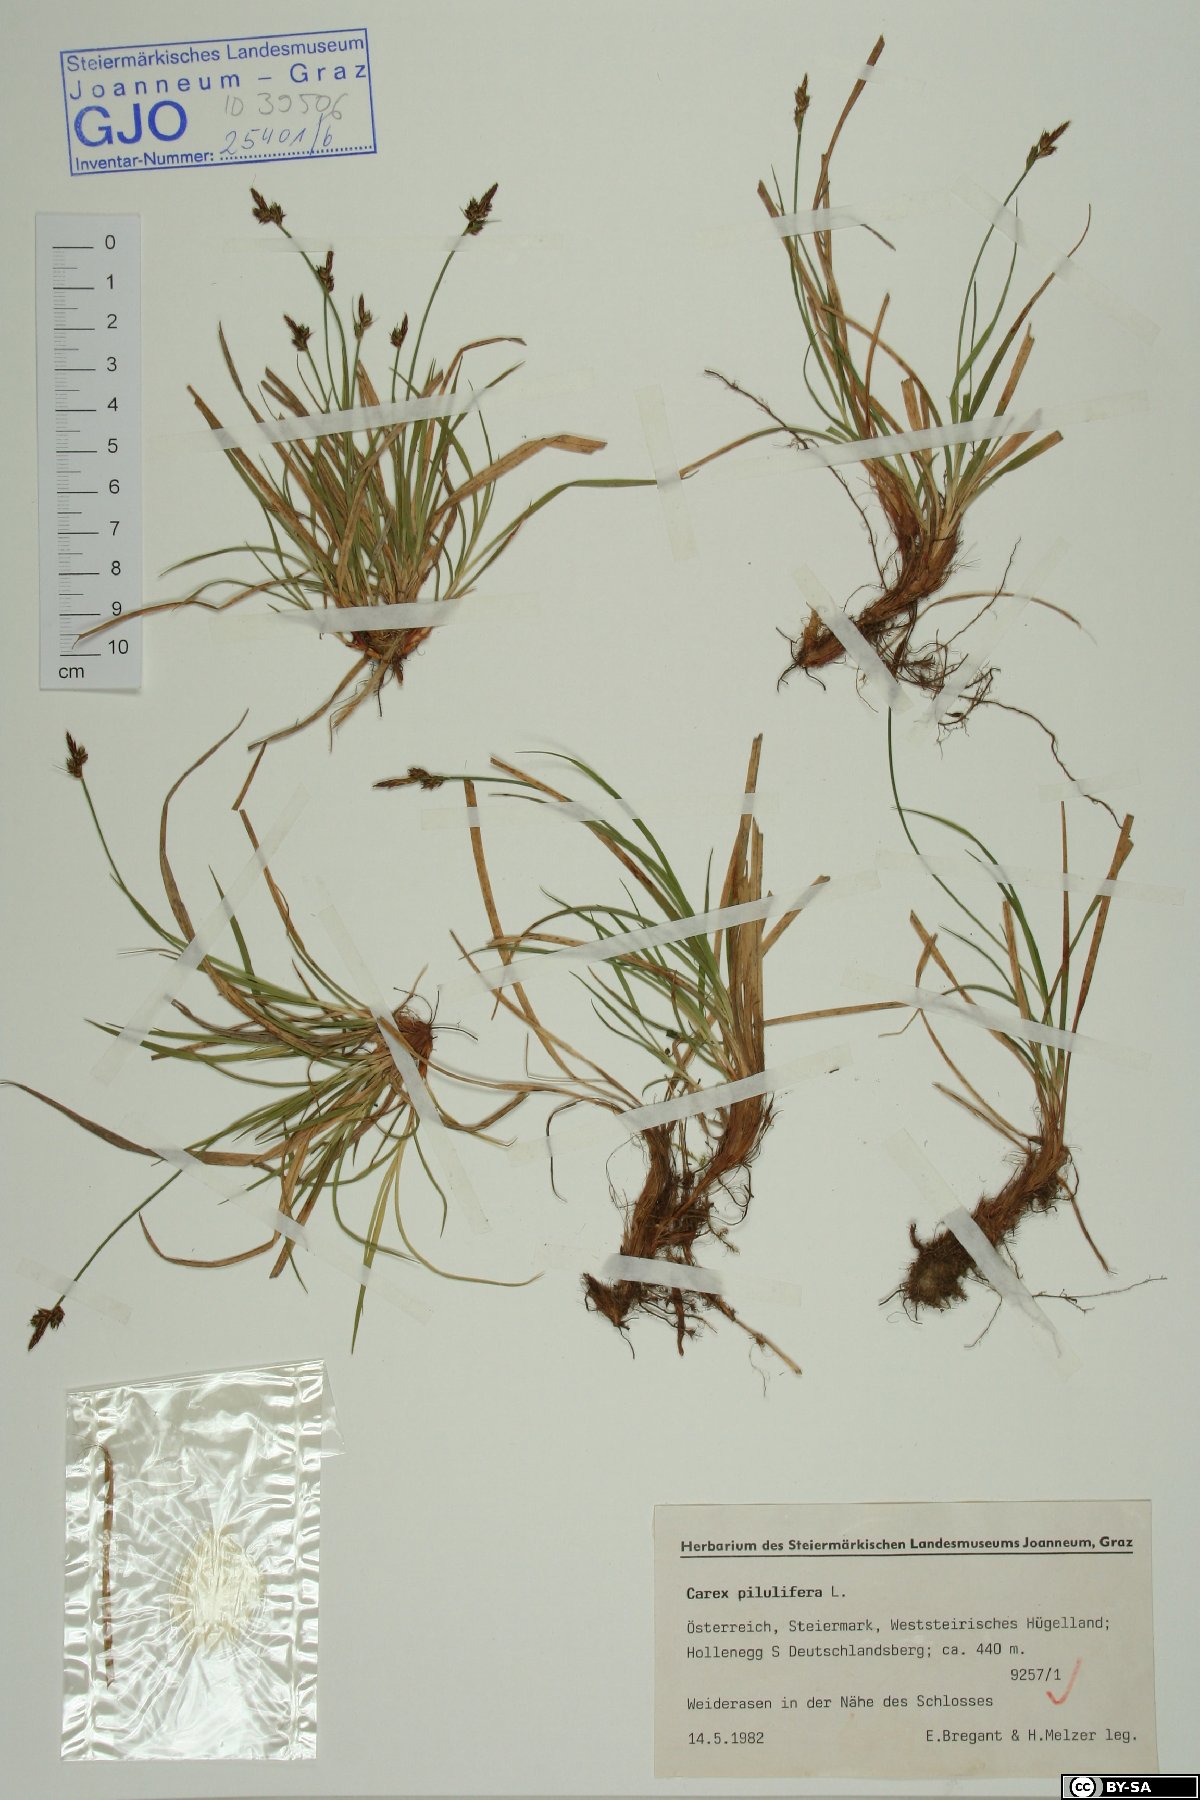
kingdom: Plantae
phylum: Tracheophyta
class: Liliopsida
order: Poales
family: Cyperaceae
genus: Carex
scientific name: Carex pilulifera
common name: Pill sedge
